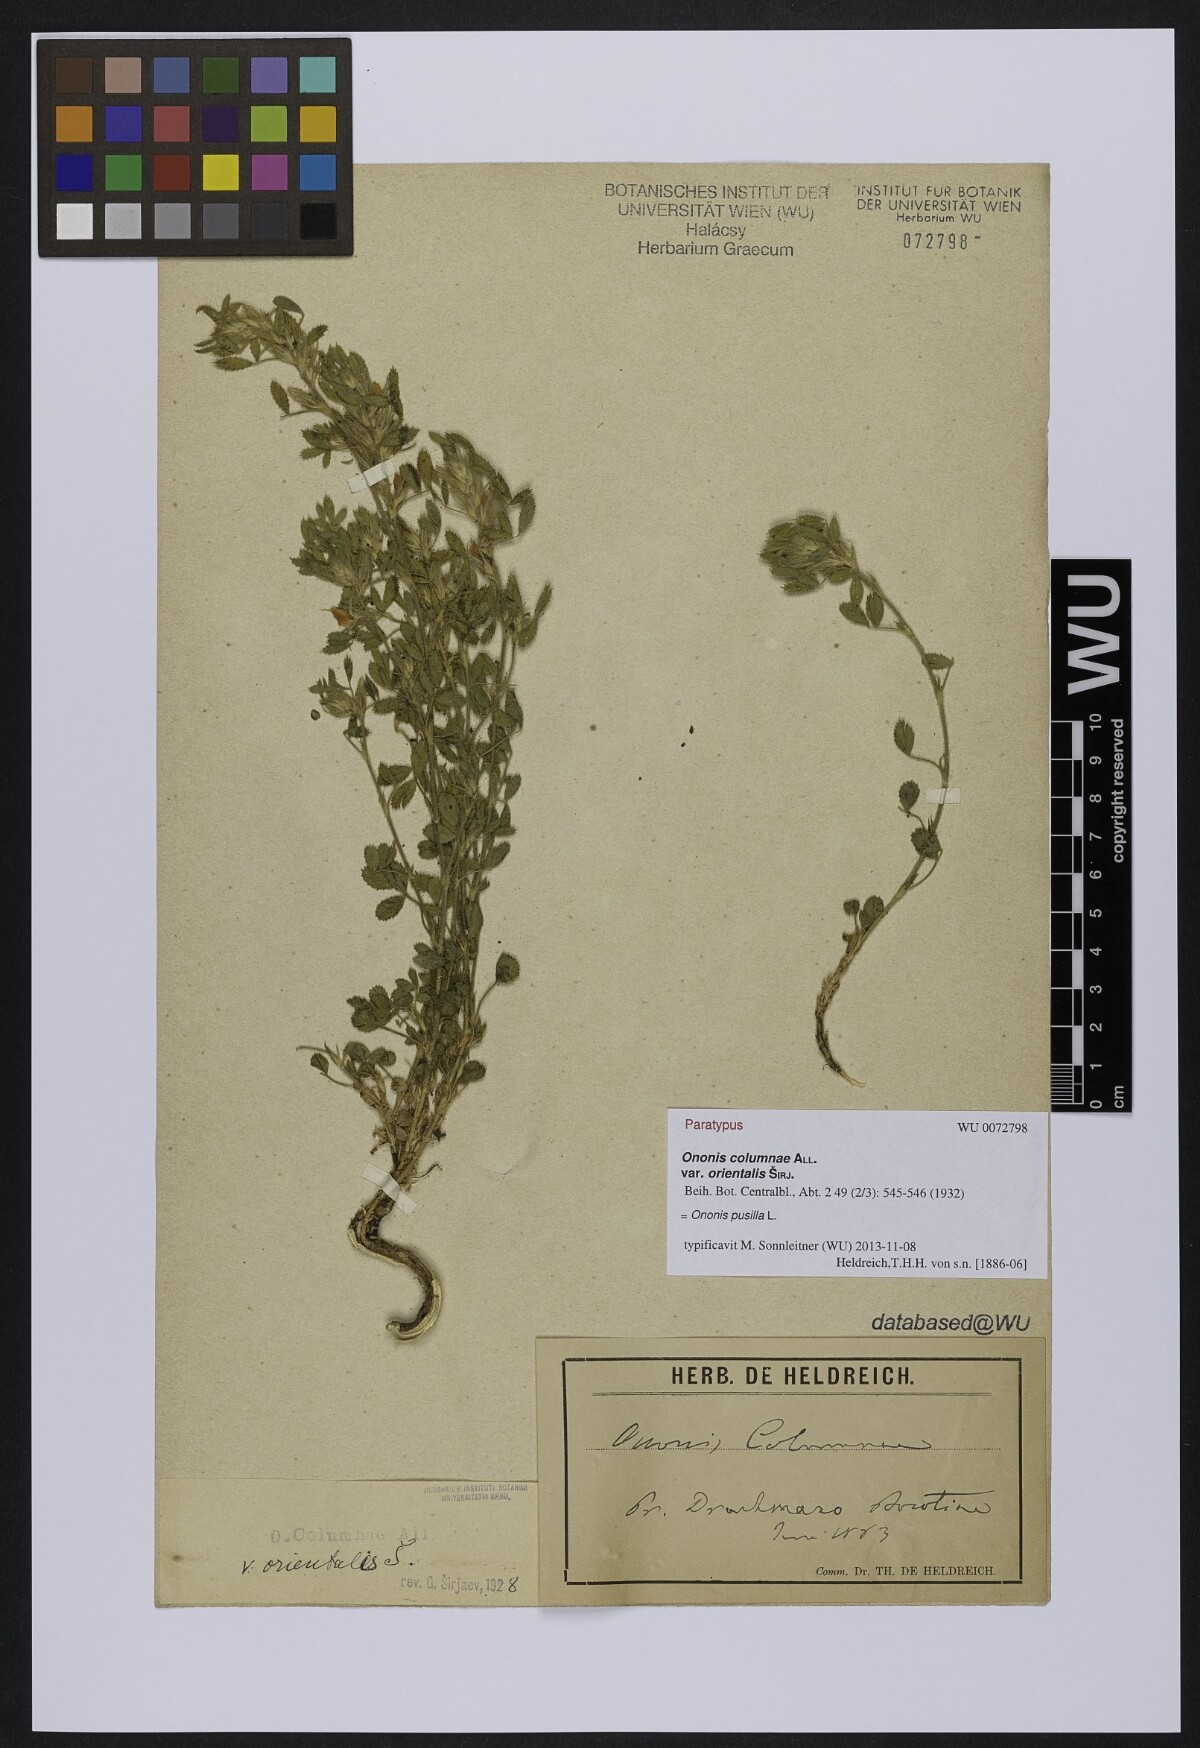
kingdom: Plantae
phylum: Tracheophyta
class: Magnoliopsida
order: Fabales
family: Fabaceae
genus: Ononis
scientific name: Ononis pusilla
